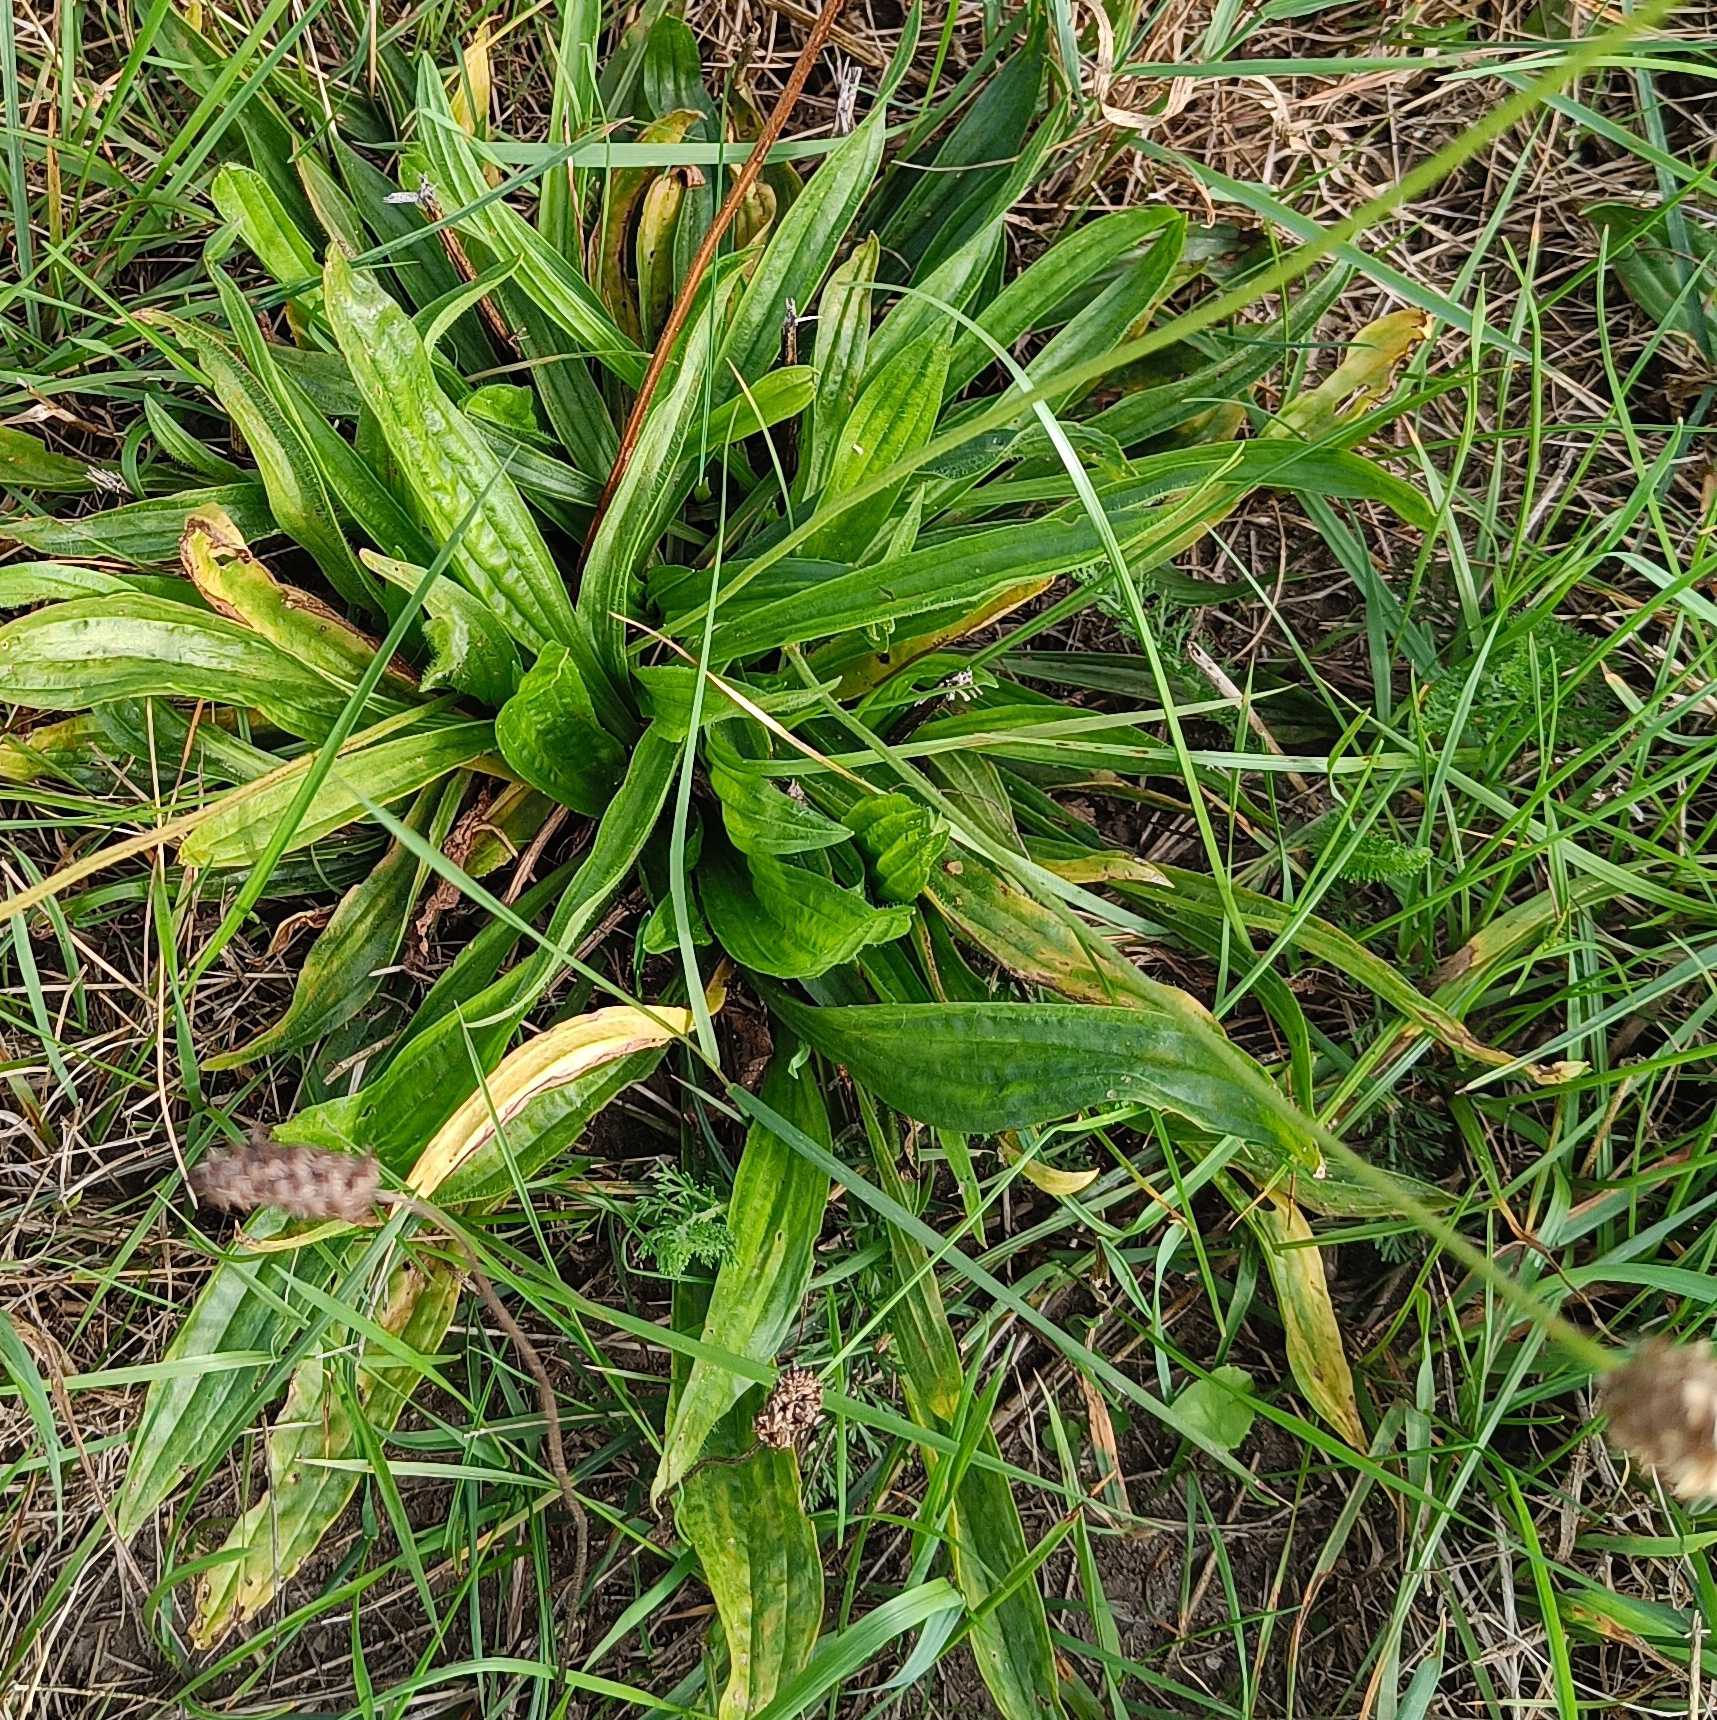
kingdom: Plantae
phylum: Tracheophyta
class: Magnoliopsida
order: Lamiales
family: Plantaginaceae
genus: Plantago
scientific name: Plantago lanceolata
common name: Lancet-vejbred
